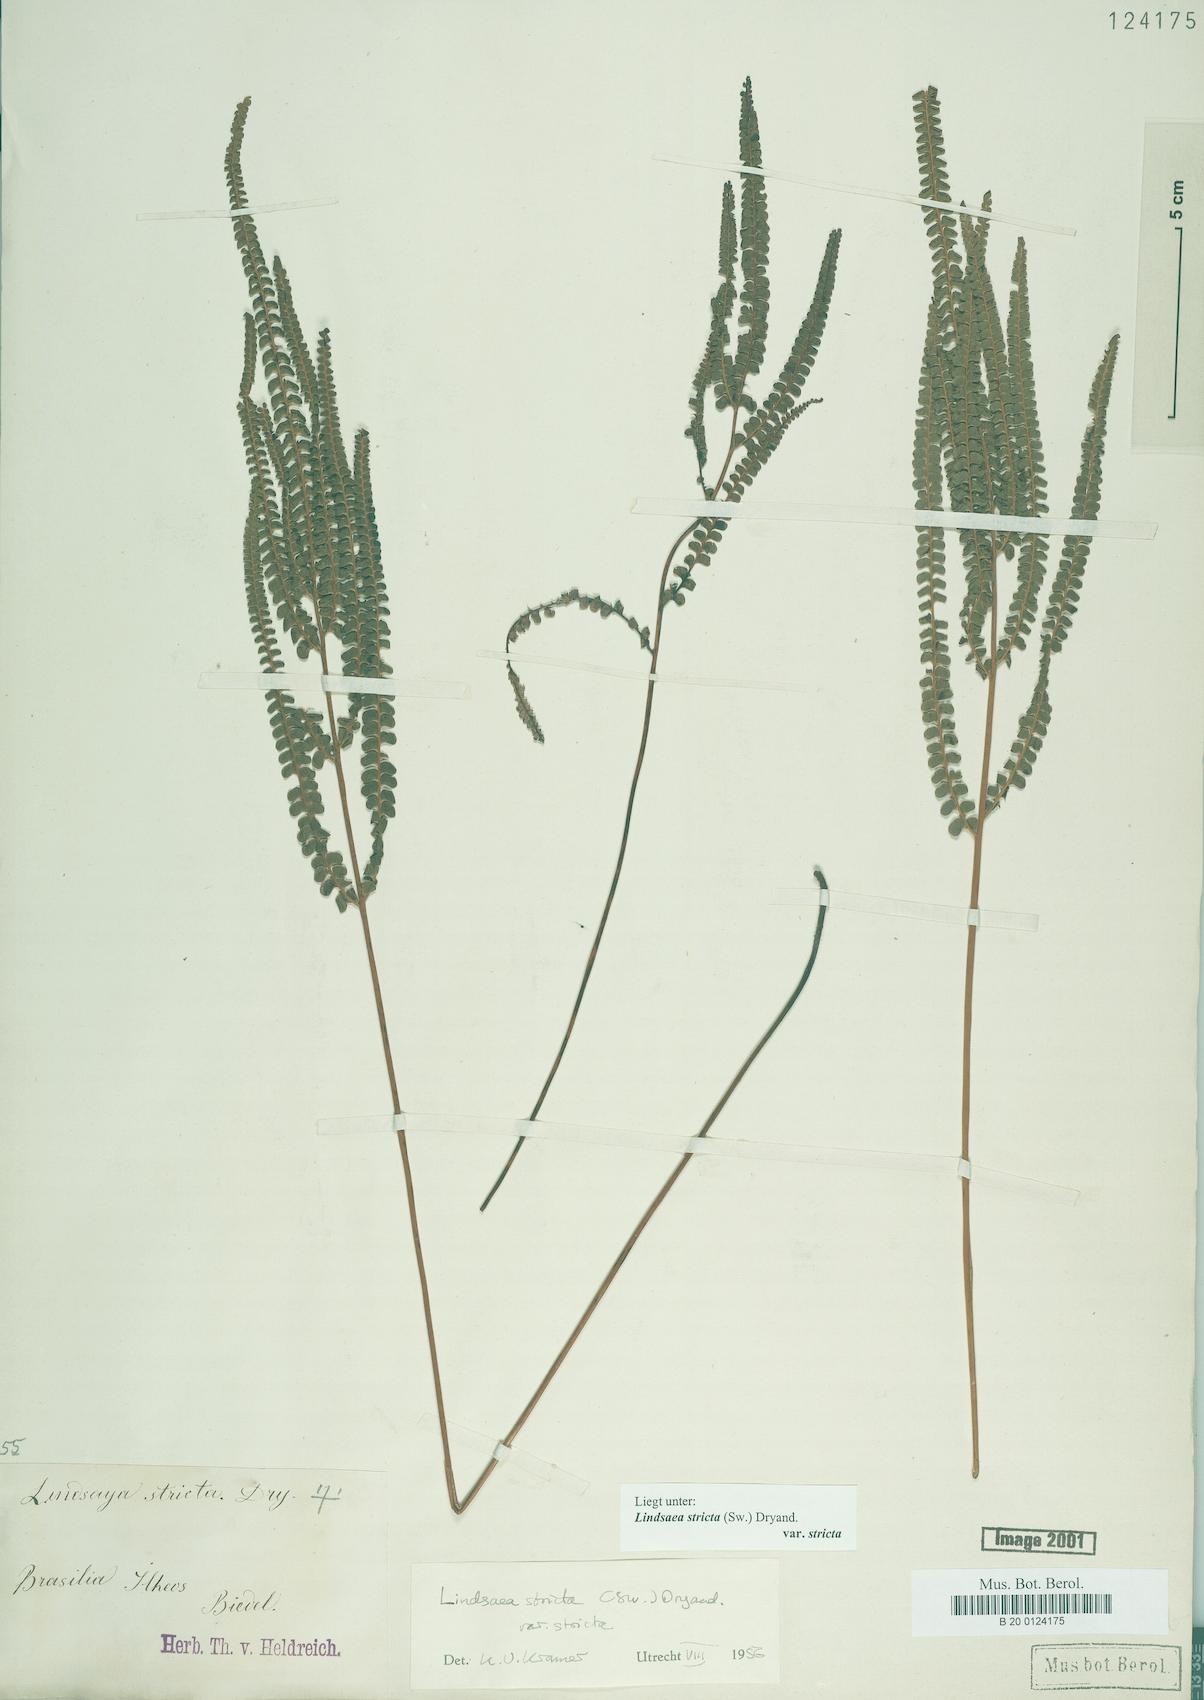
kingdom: Plantae
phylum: Tracheophyta
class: Polypodiopsida
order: Polypodiales
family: Lindsaeaceae
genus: Lindsaea
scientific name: Lindsaea stricta
